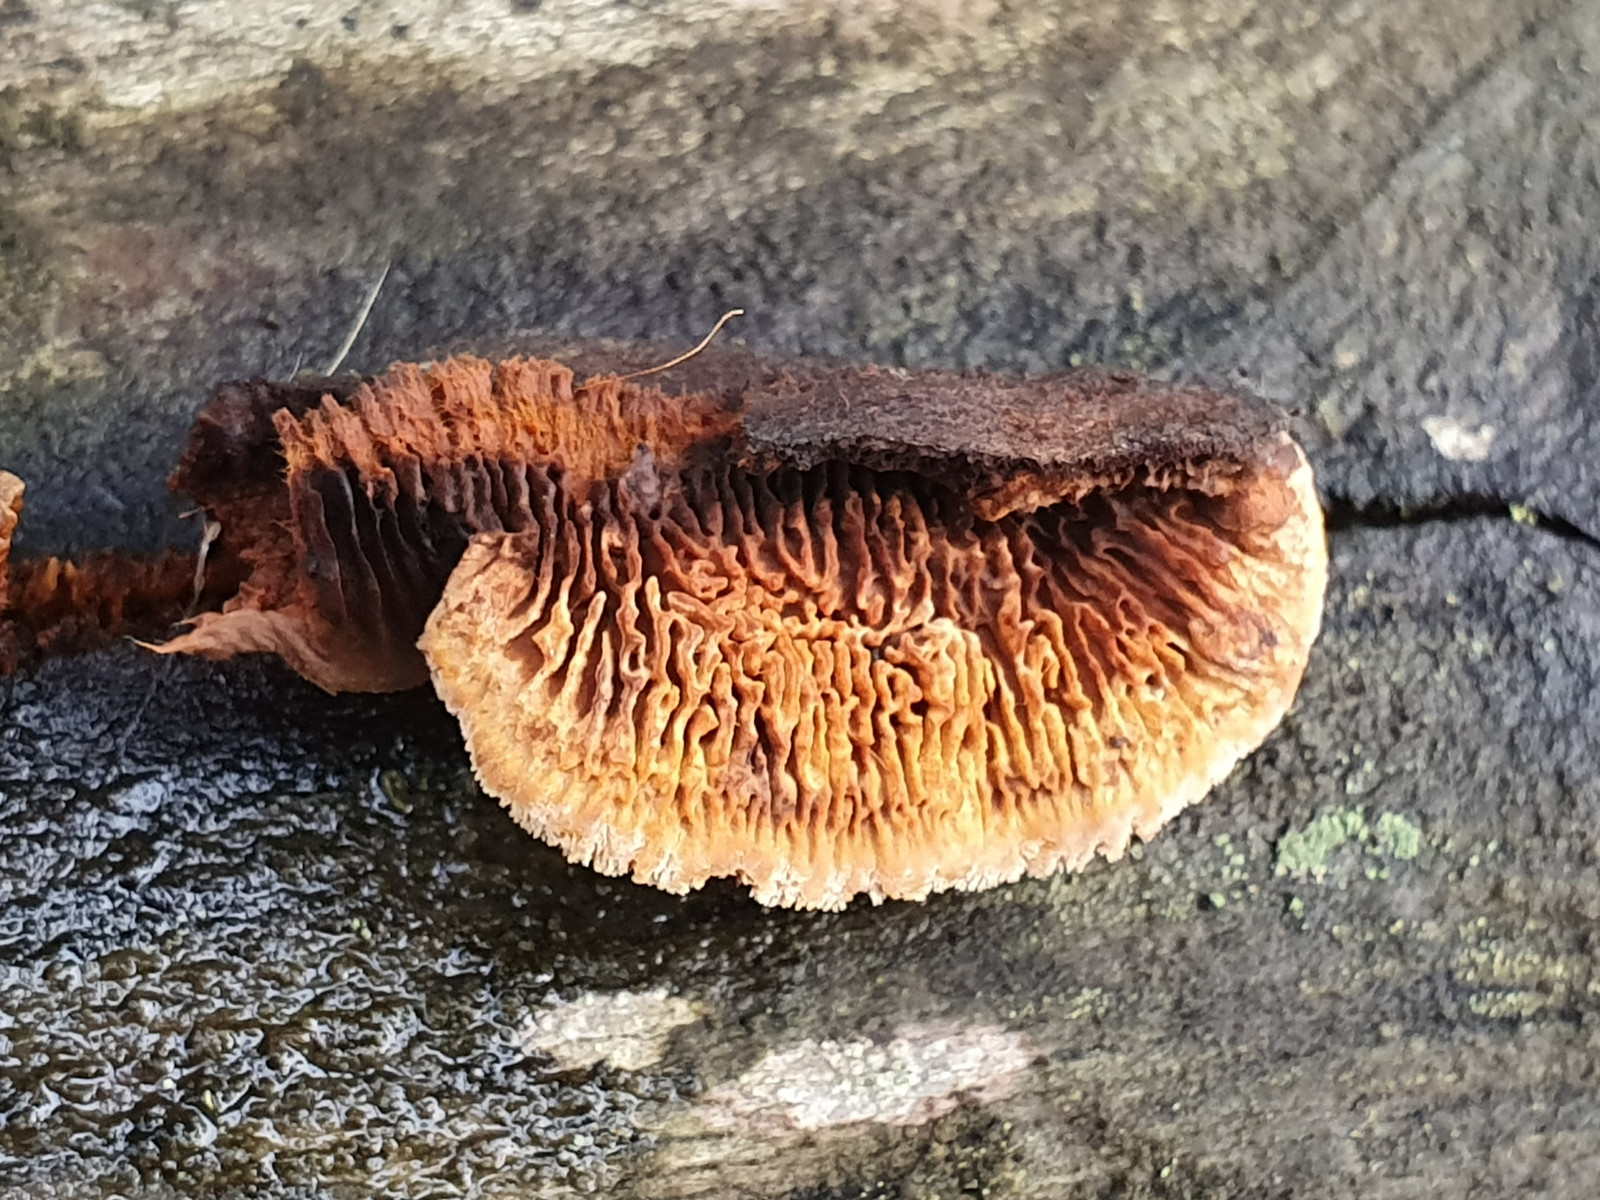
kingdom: Fungi
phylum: Basidiomycota
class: Agaricomycetes
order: Gloeophyllales
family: Gloeophyllaceae
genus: Gloeophyllum
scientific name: Gloeophyllum sepiarium
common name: fyrre-korkhat
